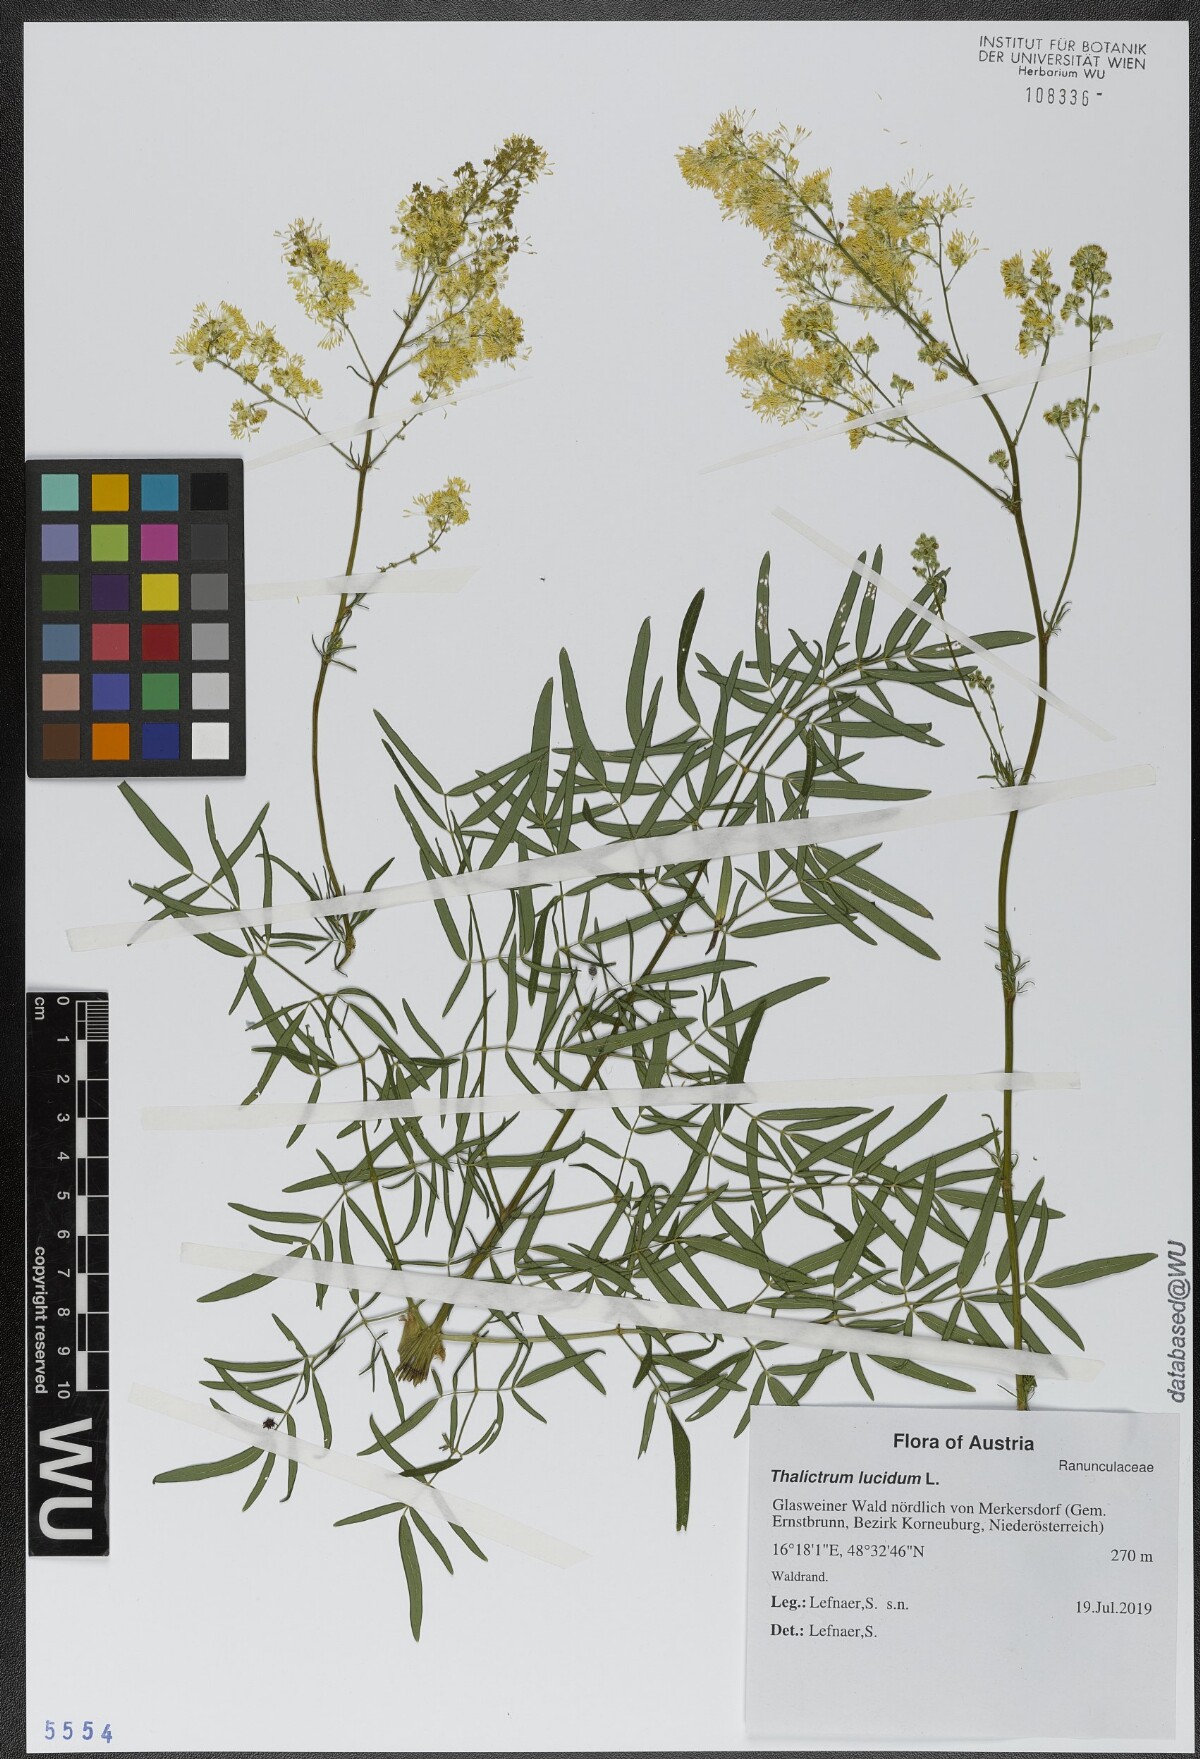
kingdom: Plantae
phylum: Tracheophyta
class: Magnoliopsida
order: Ranunculales
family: Ranunculaceae
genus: Thalictrum
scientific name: Thalictrum lucidum
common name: Shining meadow-rue
